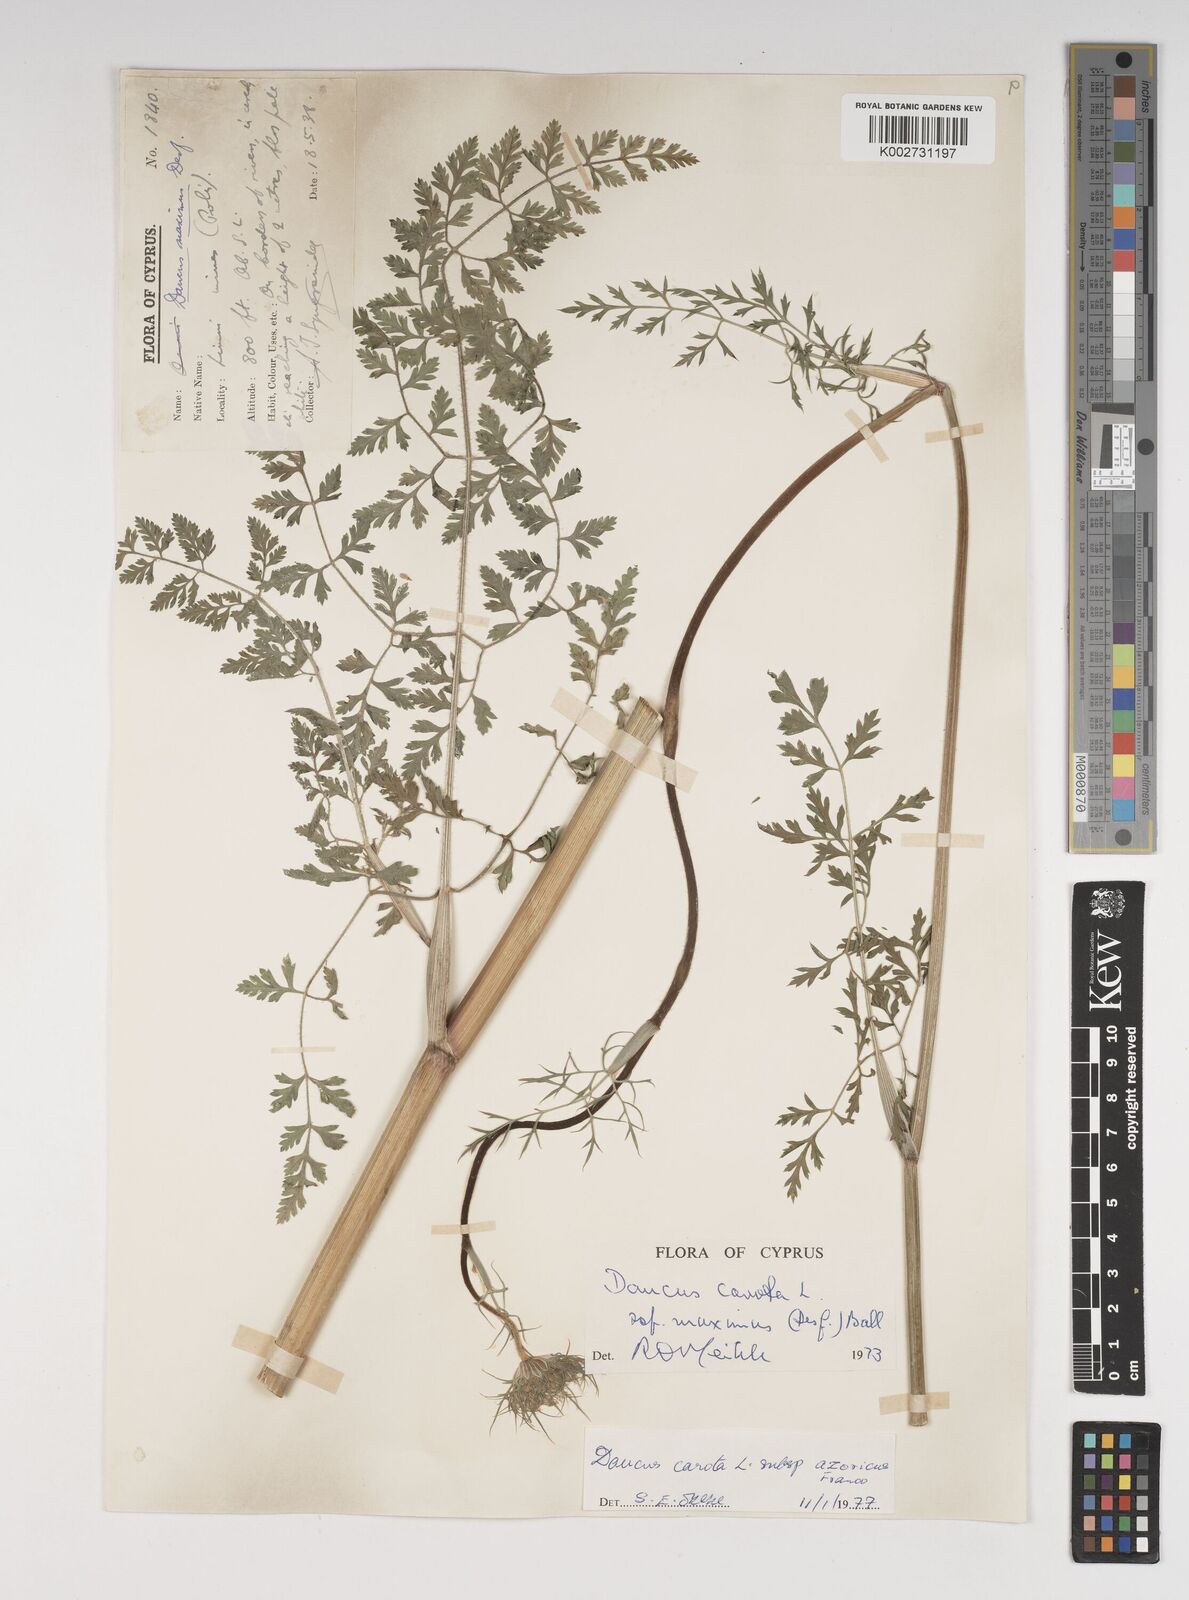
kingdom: Plantae
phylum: Tracheophyta
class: Magnoliopsida
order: Apiales
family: Apiaceae
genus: Daucus
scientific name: Daucus carota
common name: Wild carrot
